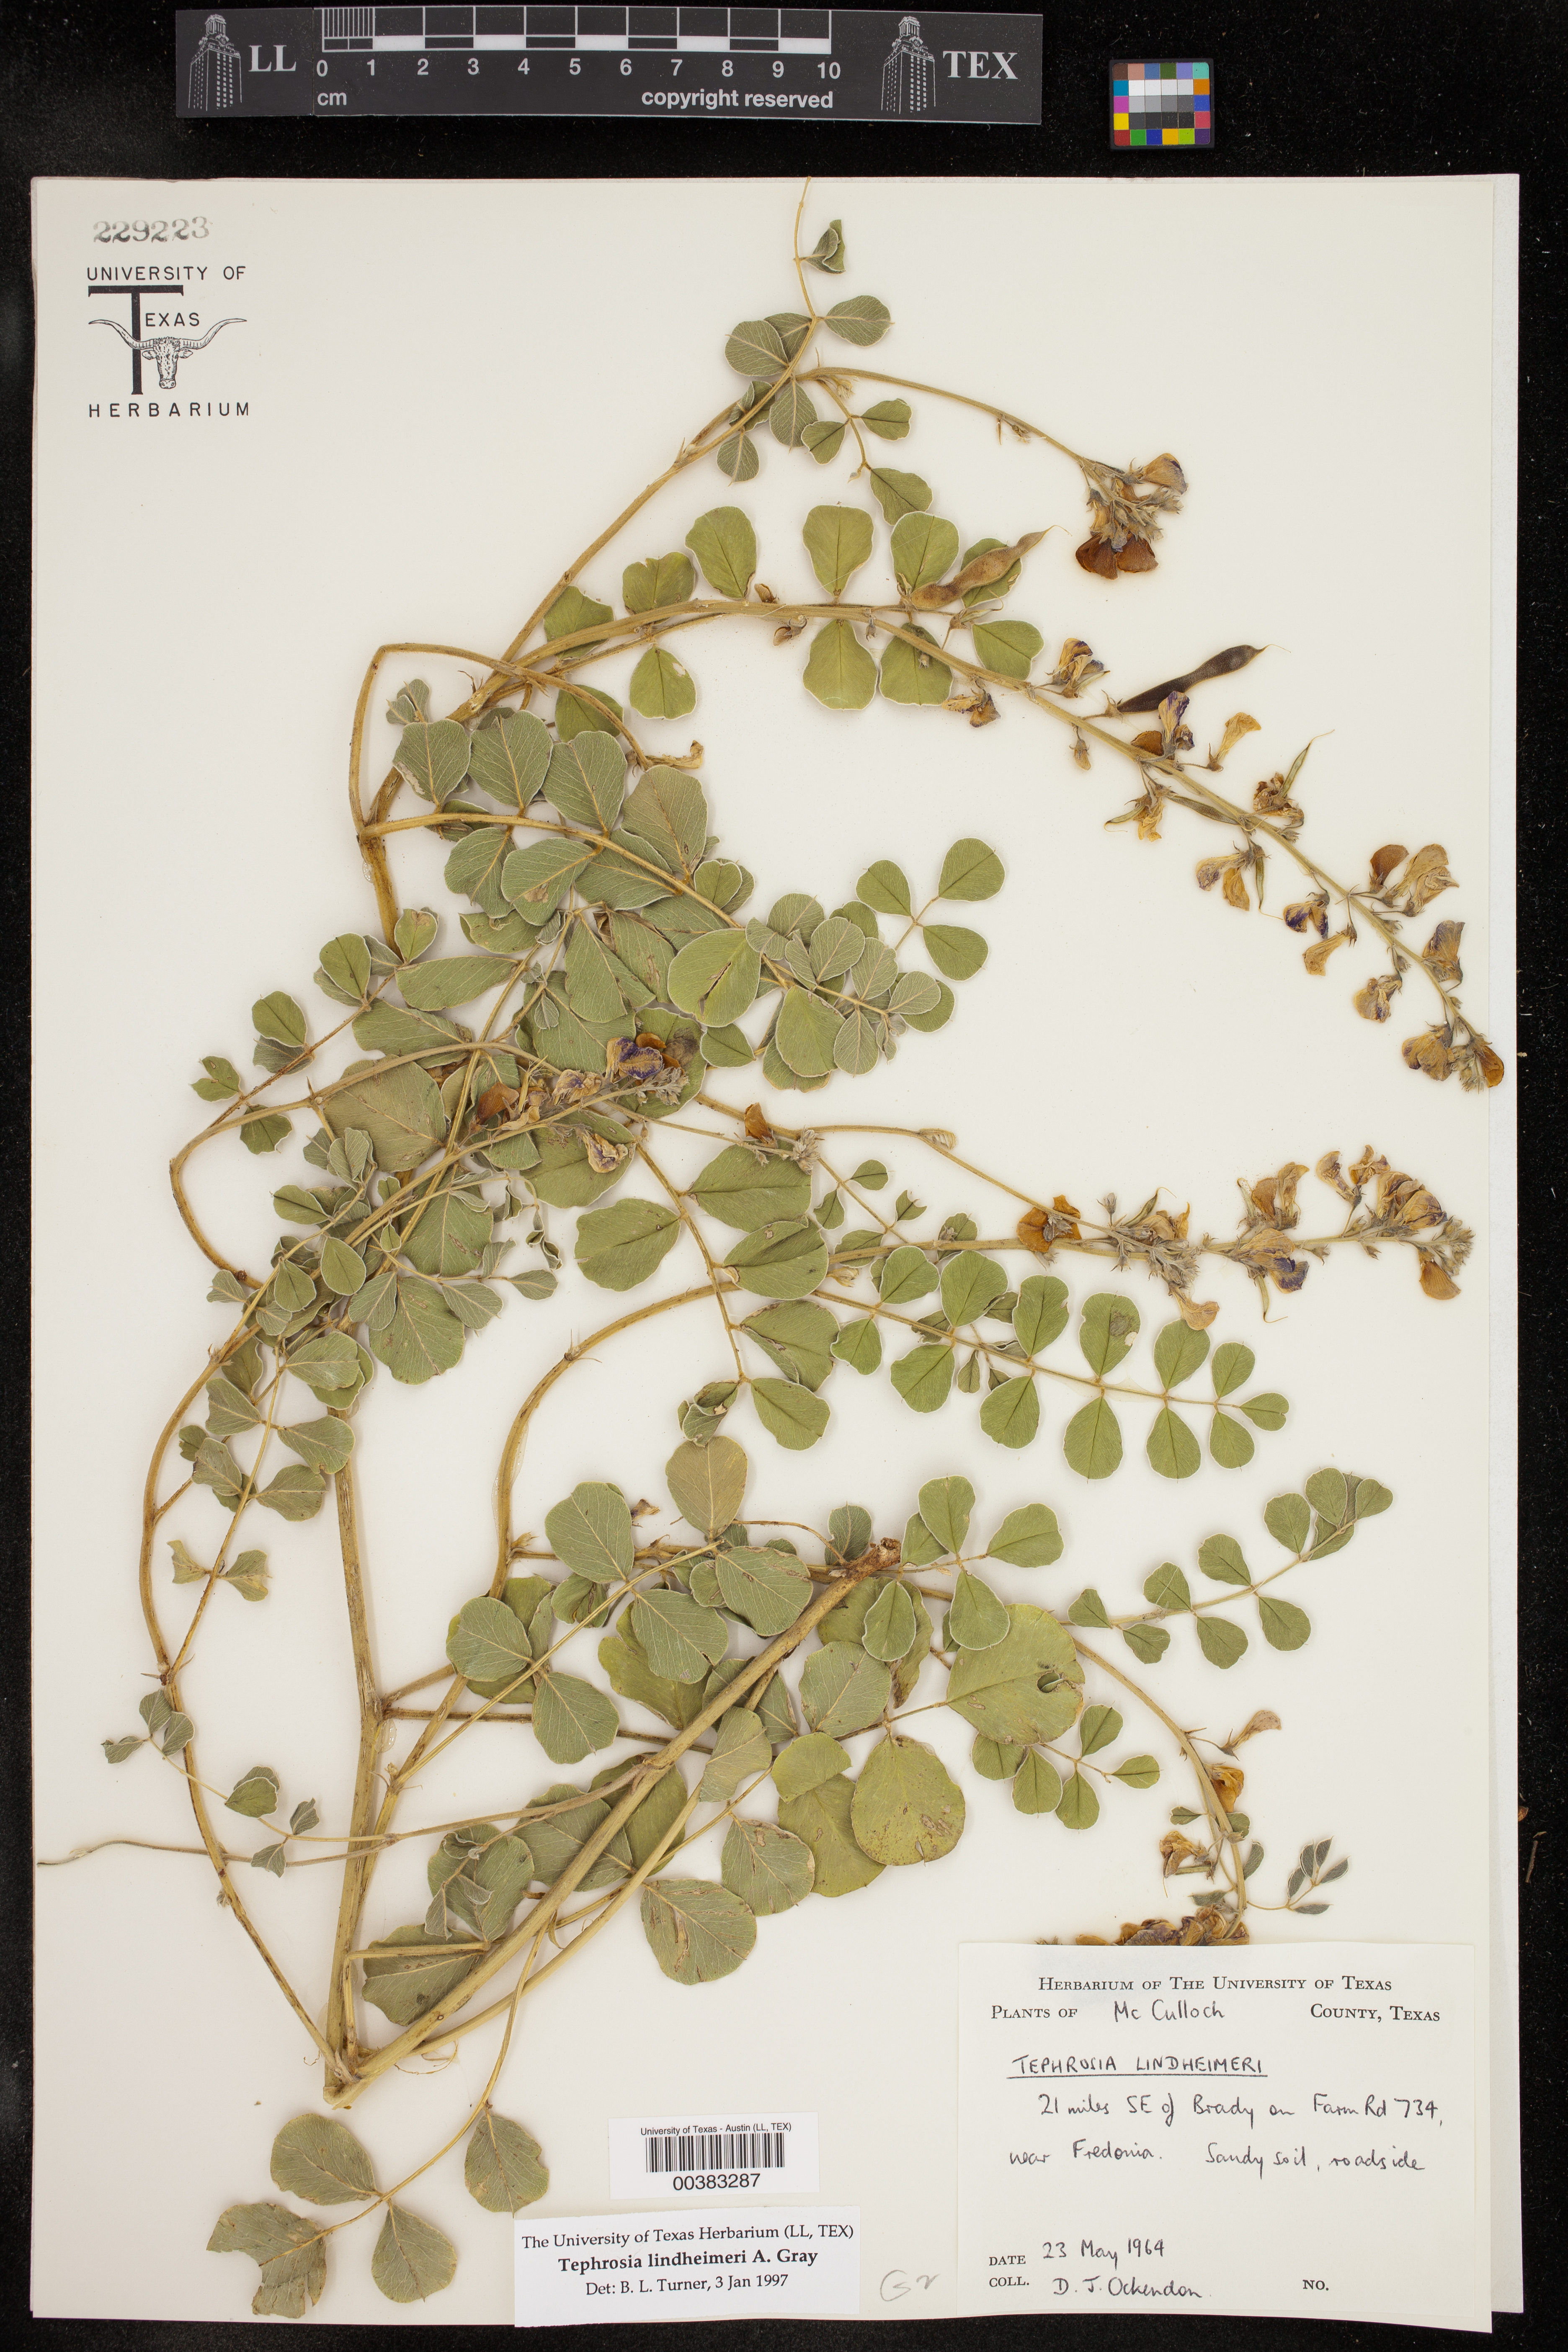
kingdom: Plantae
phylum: Tracheophyta
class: Magnoliopsida
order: Fabales
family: Fabaceae
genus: Tephrosia
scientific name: Tephrosia lindheimeri
